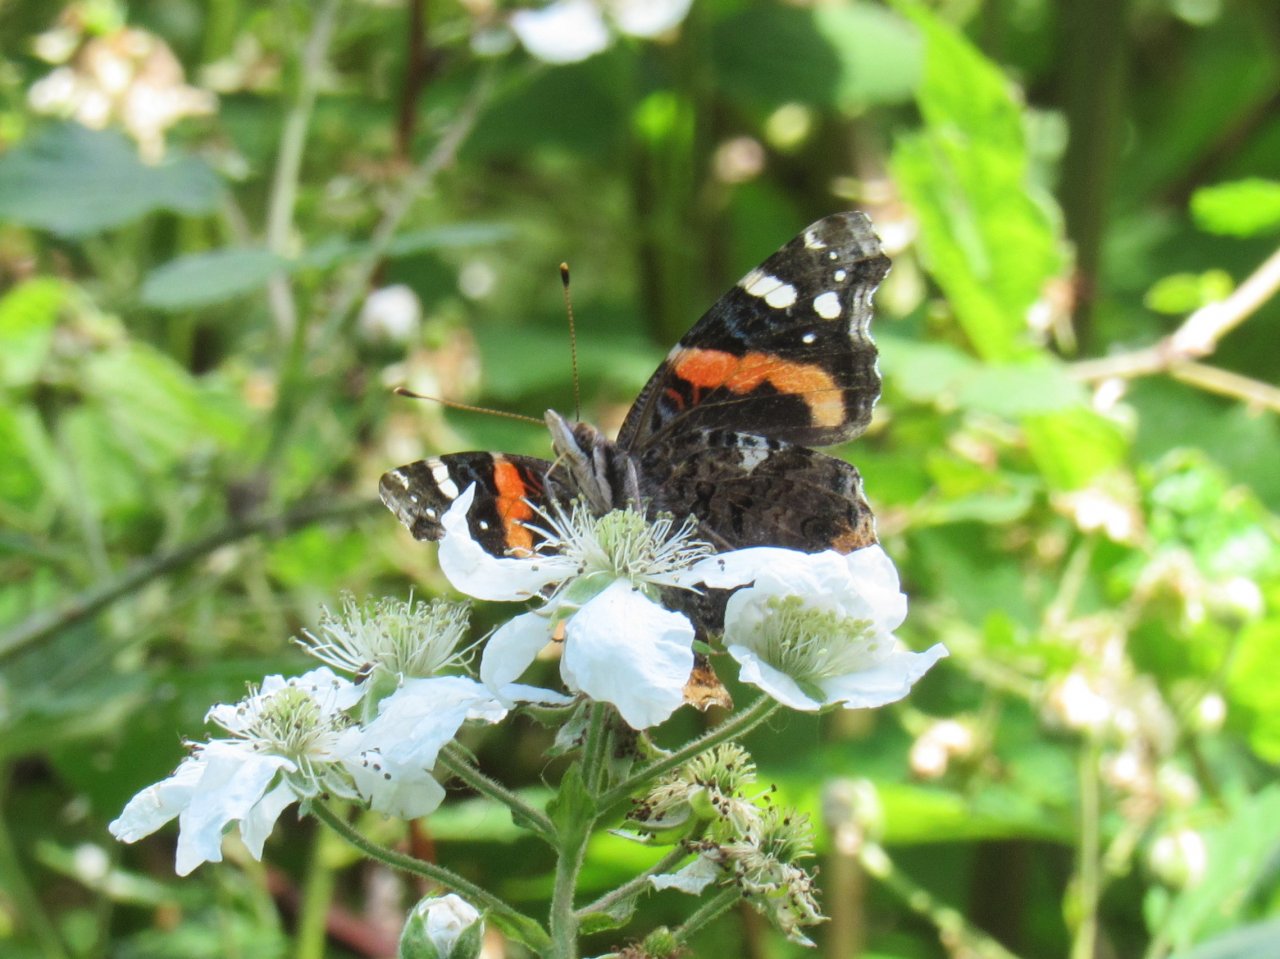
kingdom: Animalia
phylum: Arthropoda
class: Insecta
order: Lepidoptera
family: Nymphalidae
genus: Vanessa
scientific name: Vanessa atalanta
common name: Red Admiral
